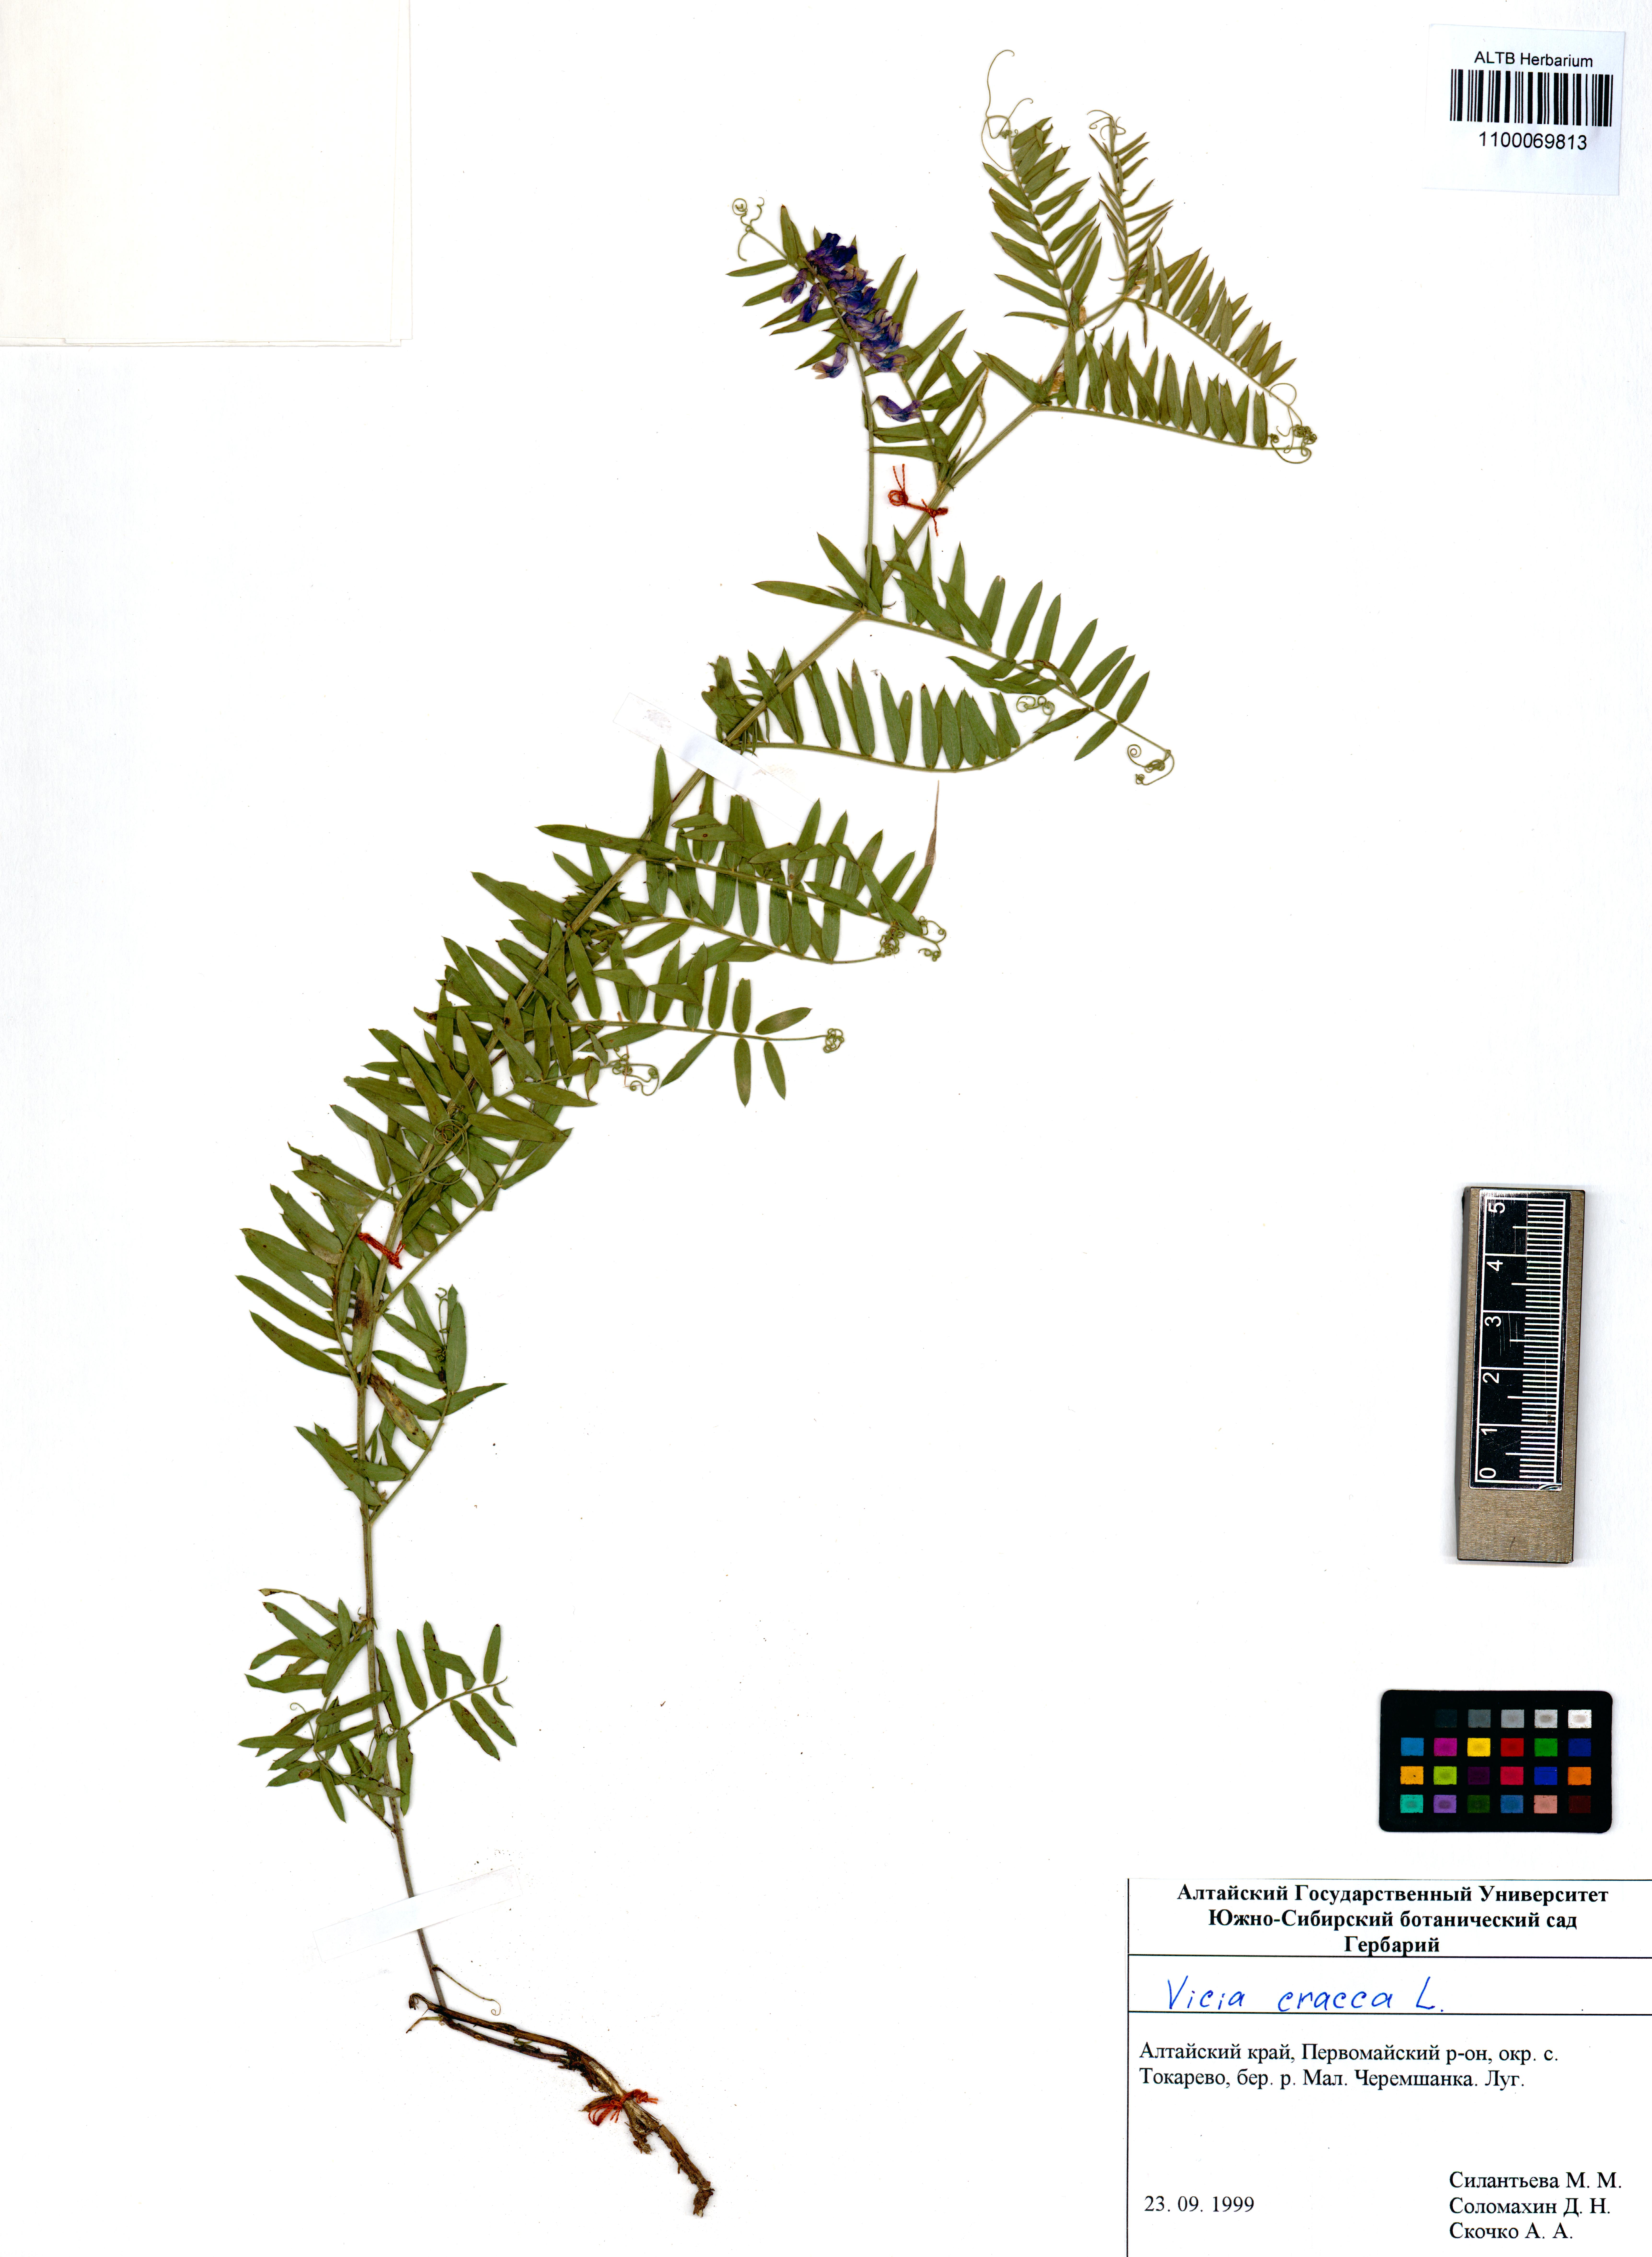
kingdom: Plantae
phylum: Tracheophyta
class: Magnoliopsida
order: Fabales
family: Fabaceae
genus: Vicia
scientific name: Vicia cracca
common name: Bird vetch
